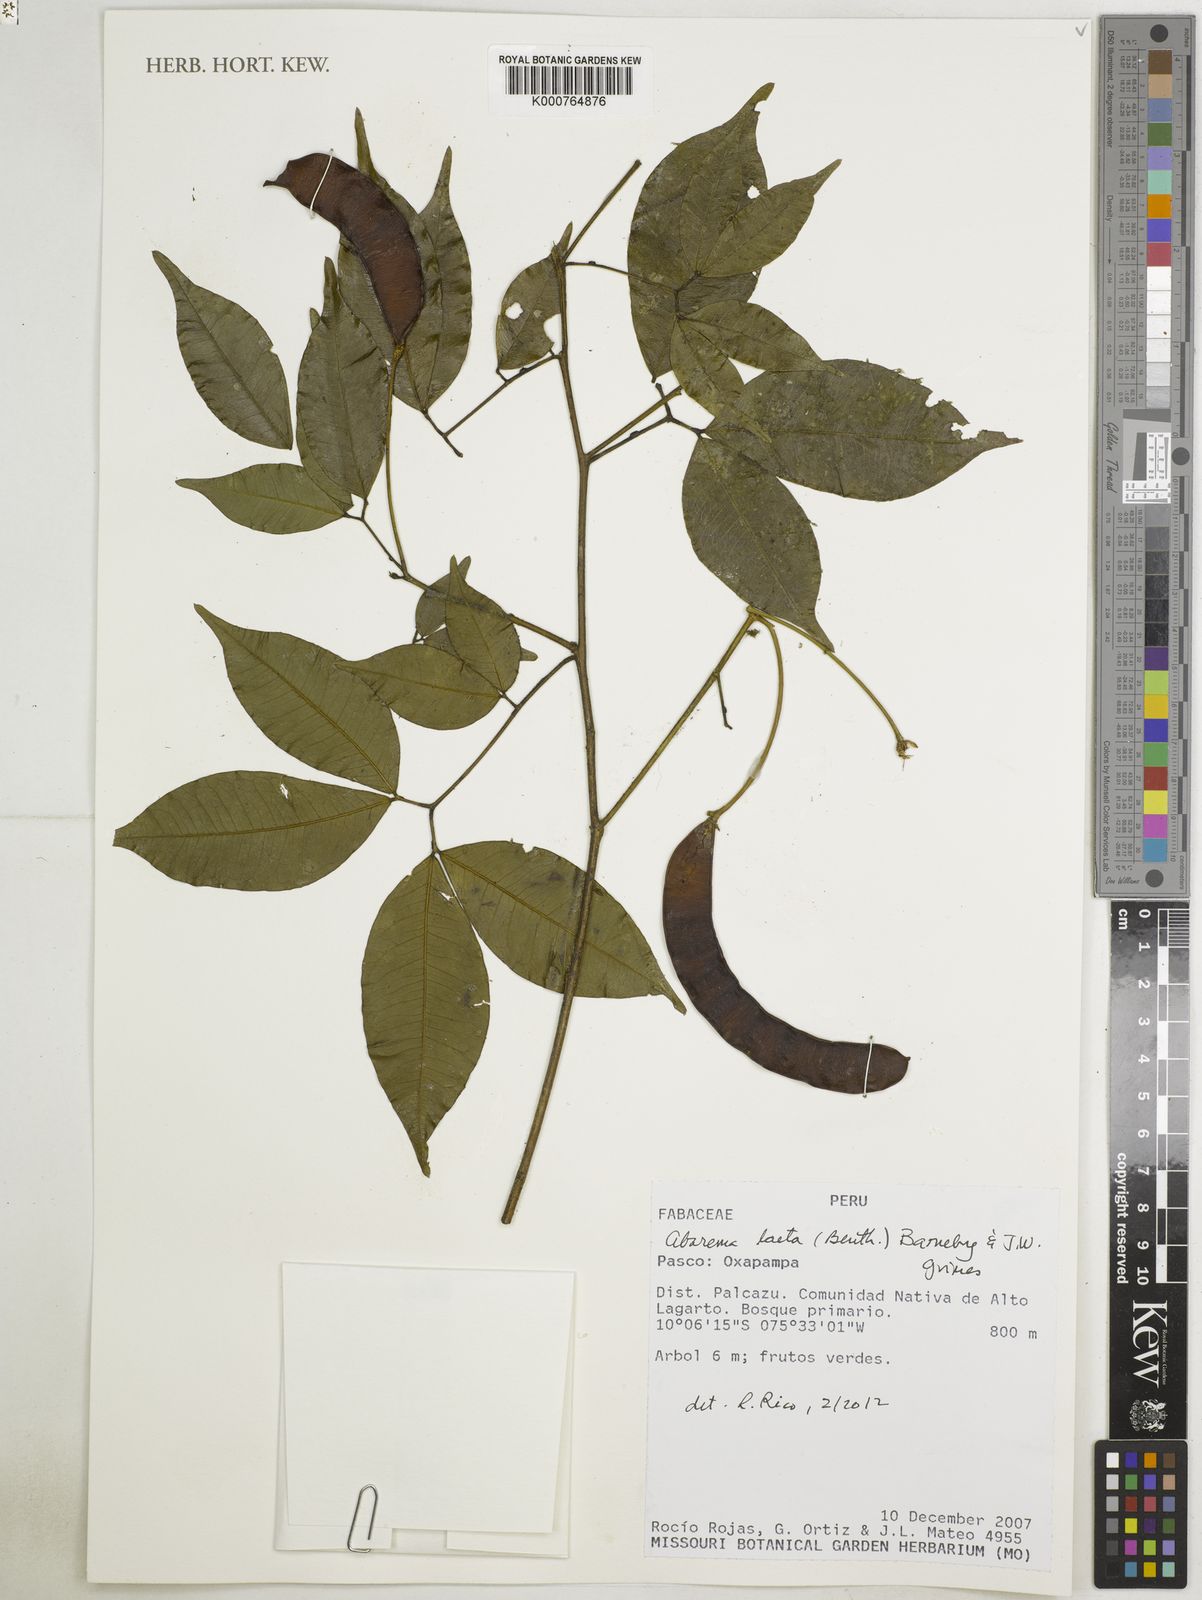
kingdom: Plantae
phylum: Tracheophyta
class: Magnoliopsida
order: Fabales
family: Fabaceae
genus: Jupunba
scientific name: Jupunba laeta
